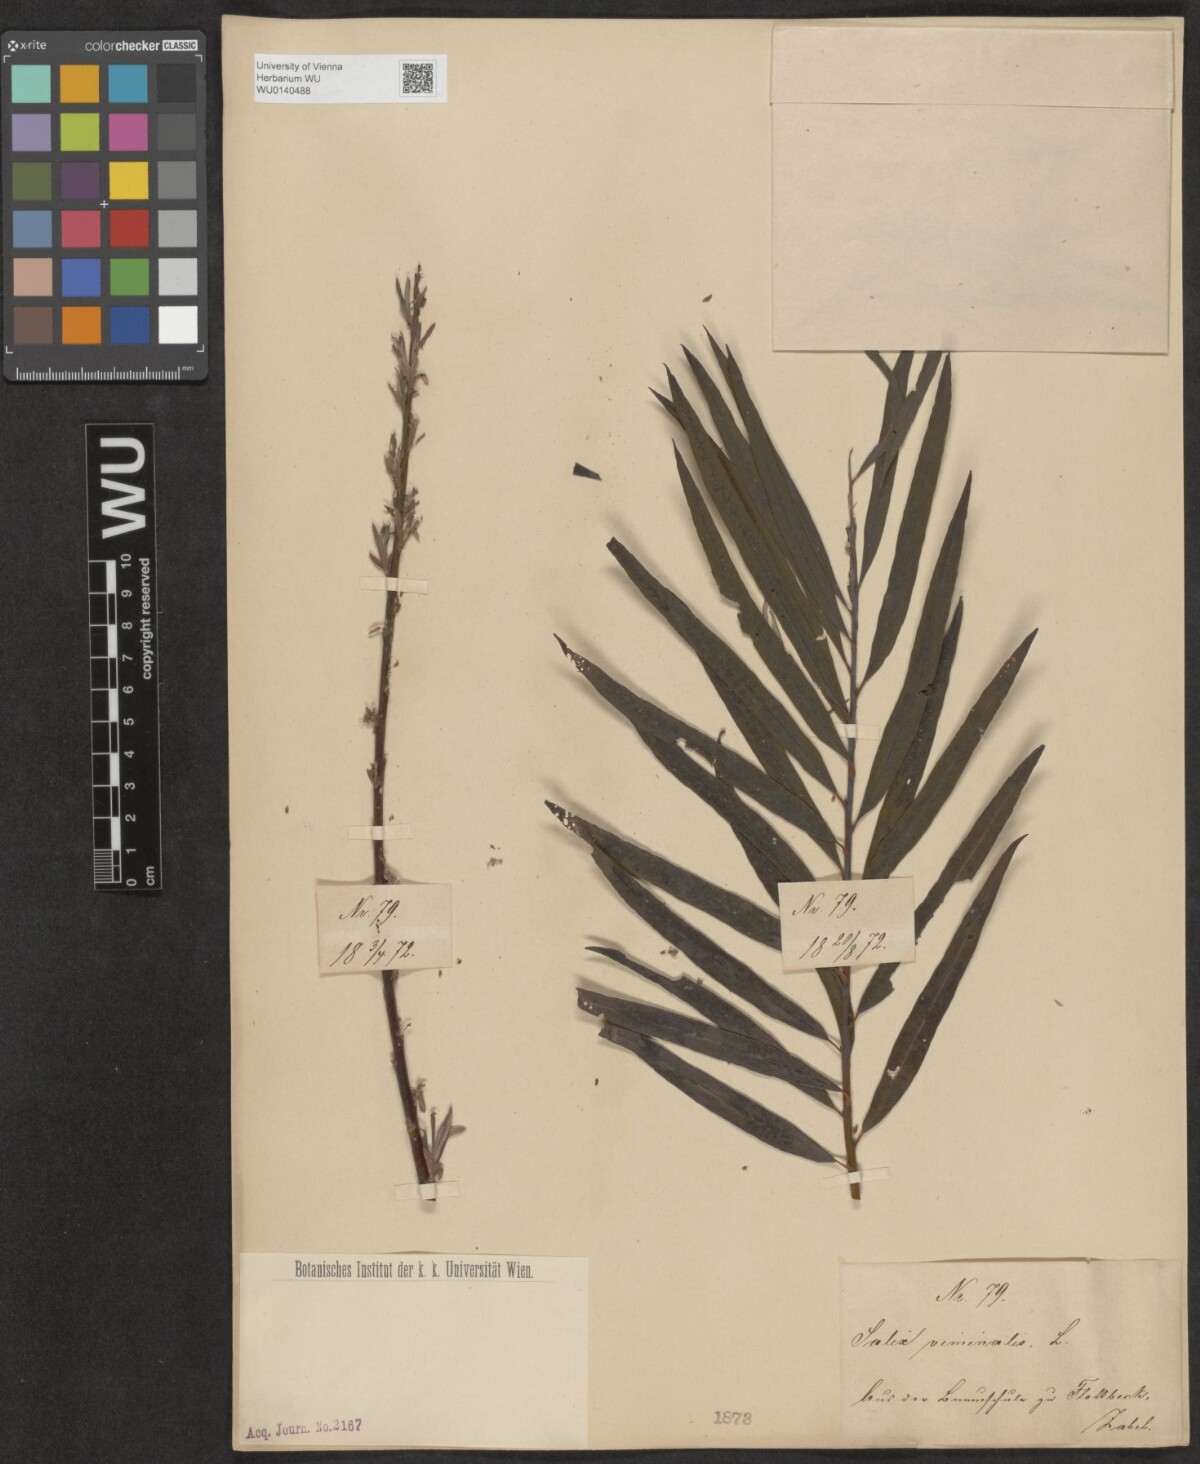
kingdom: Plantae
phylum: Tracheophyta
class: Magnoliopsida
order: Malpighiales
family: Salicaceae
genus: Salix
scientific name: Salix viminalis
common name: Osier
